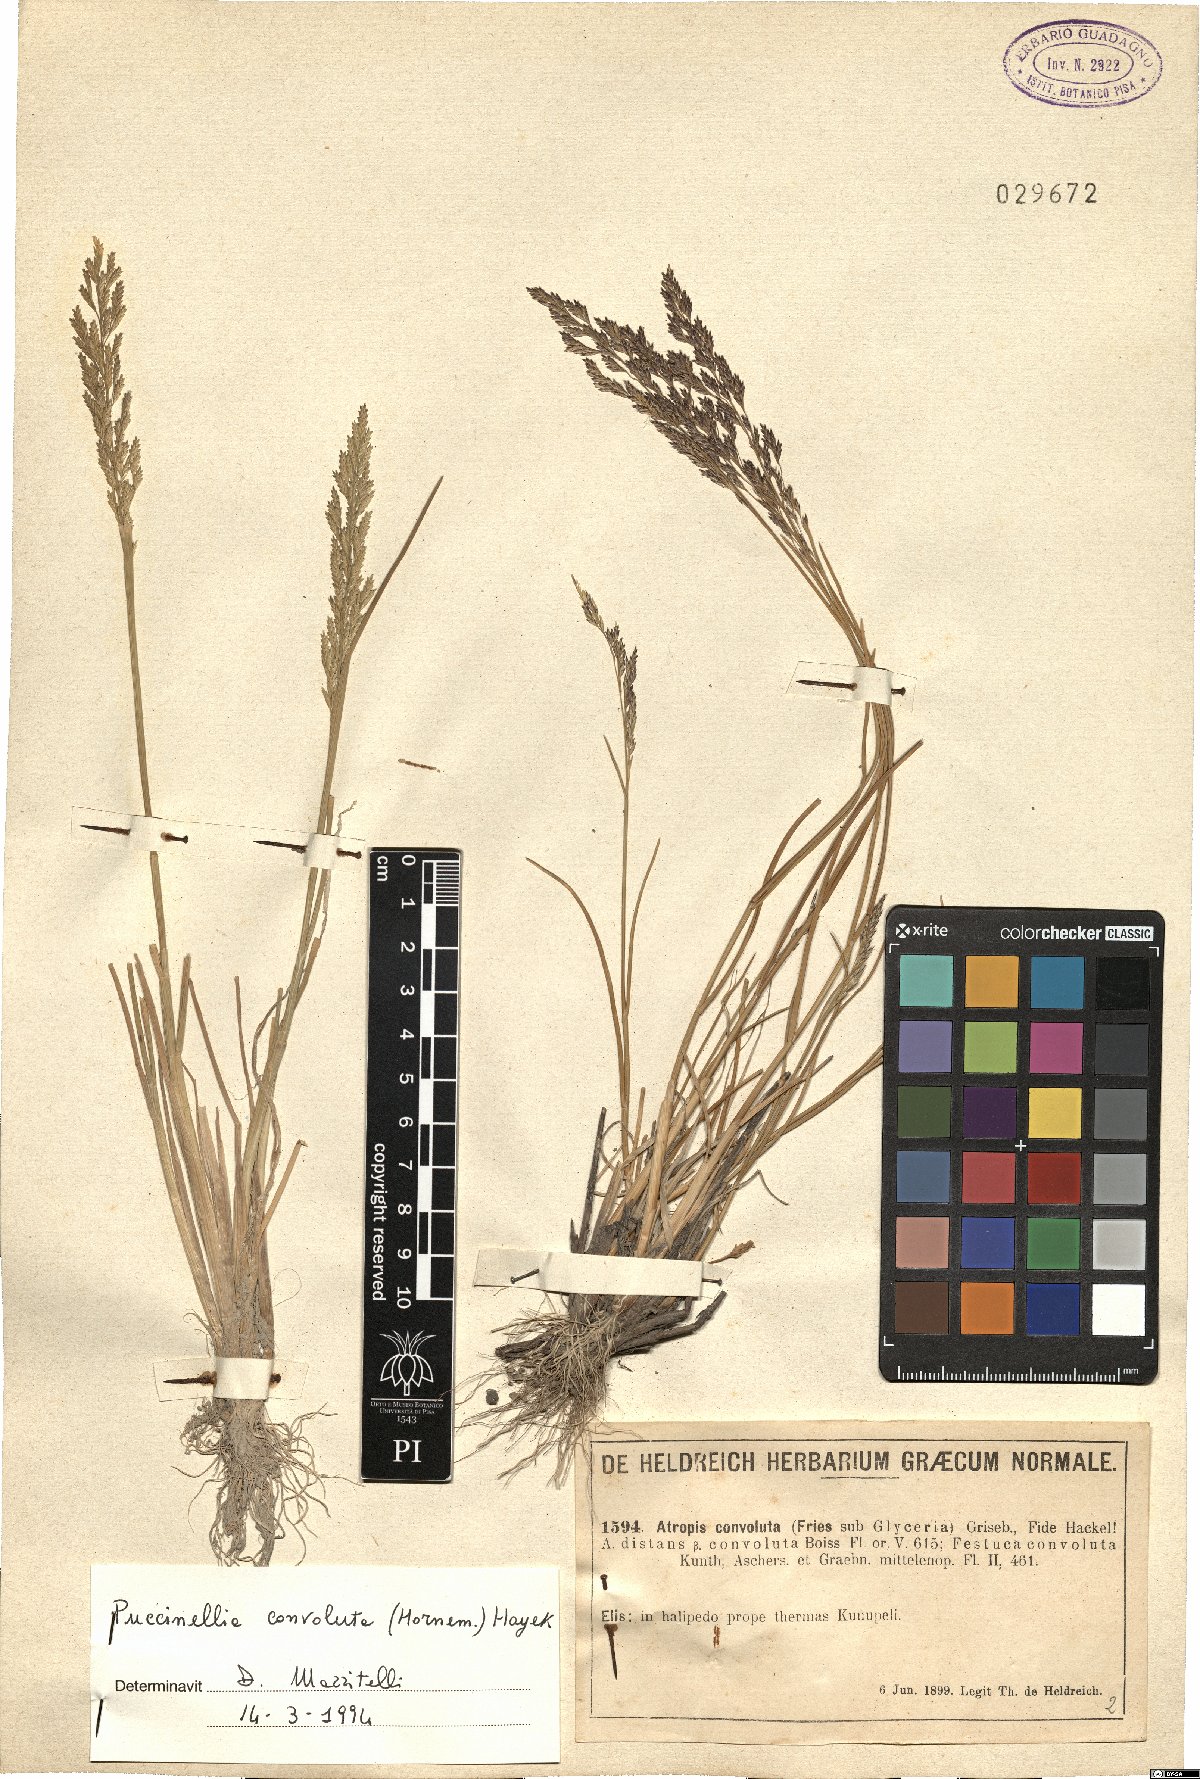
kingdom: Plantae
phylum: Tracheophyta
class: Liliopsida
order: Poales
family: Poaceae
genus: Puccinellia
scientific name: Puccinellia convoluta
